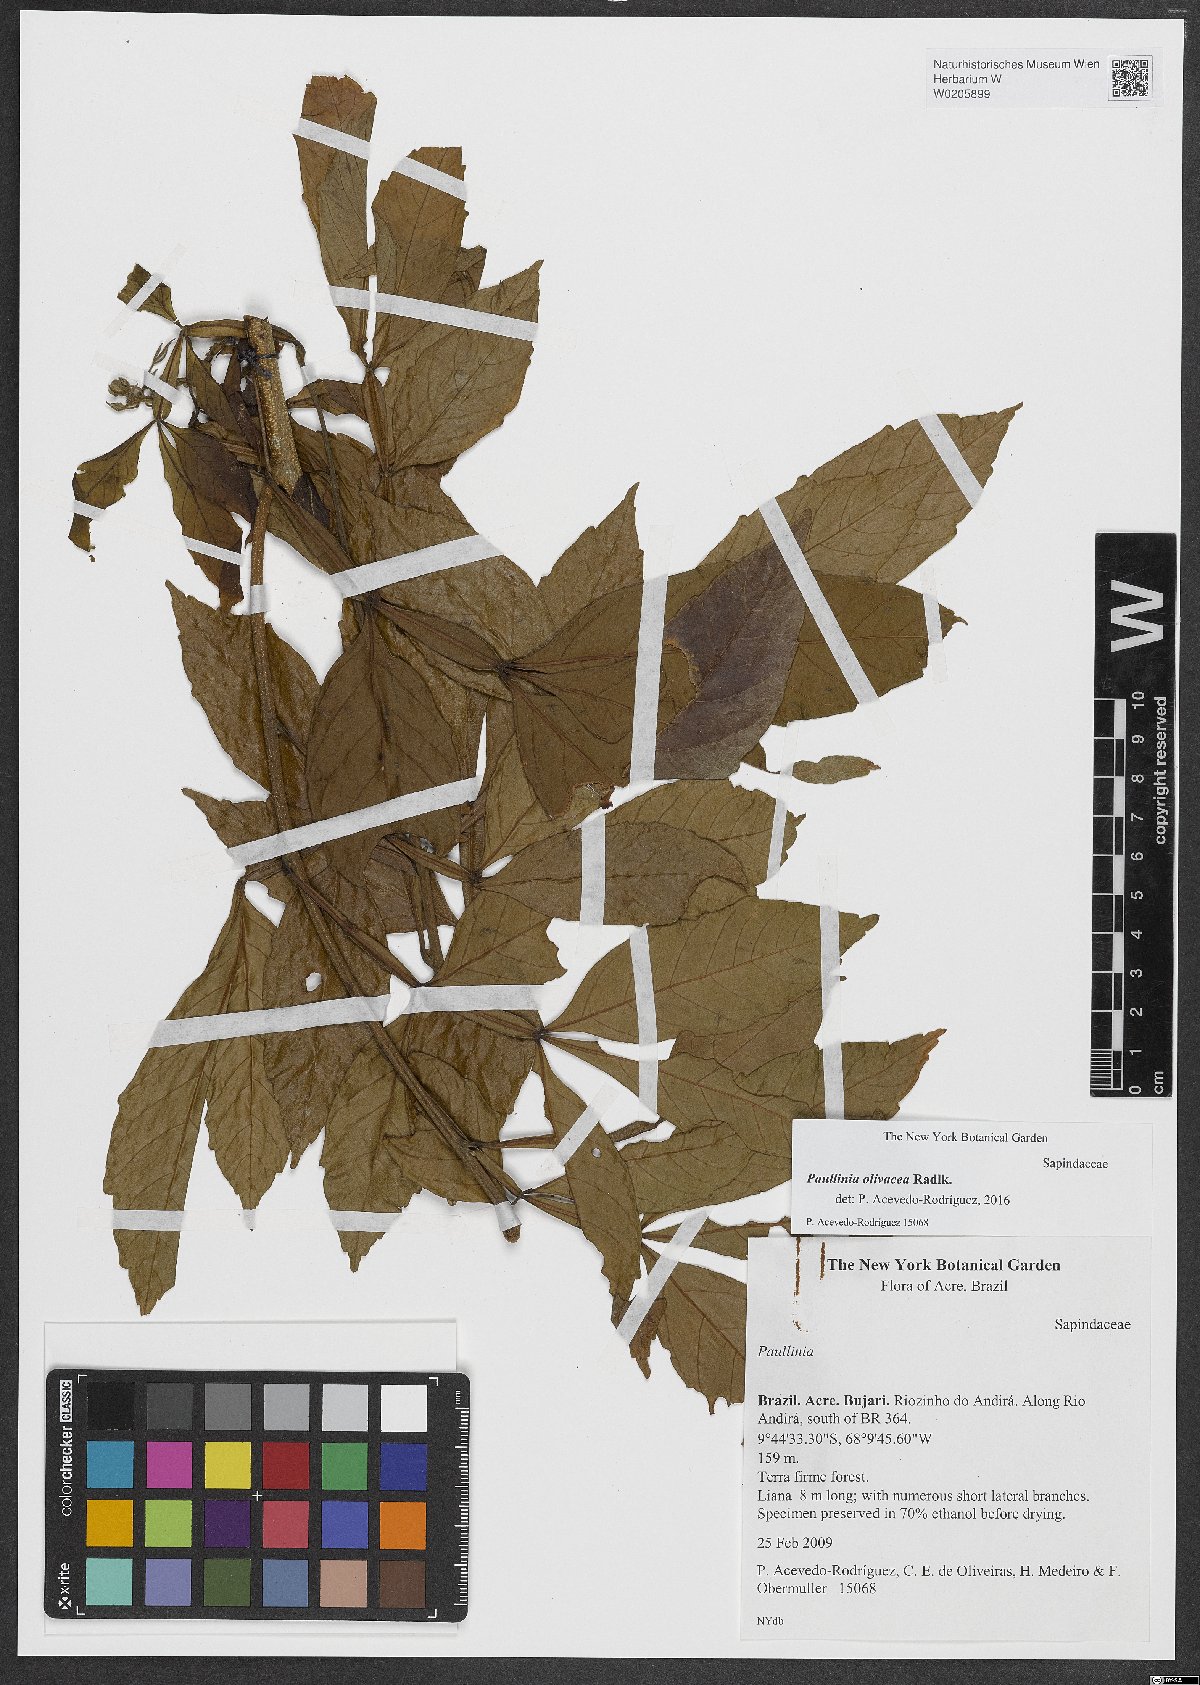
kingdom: Plantae
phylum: Tracheophyta
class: Magnoliopsida
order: Sapindales
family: Sapindaceae
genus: Paullinia
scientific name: Paullinia pterophylla
